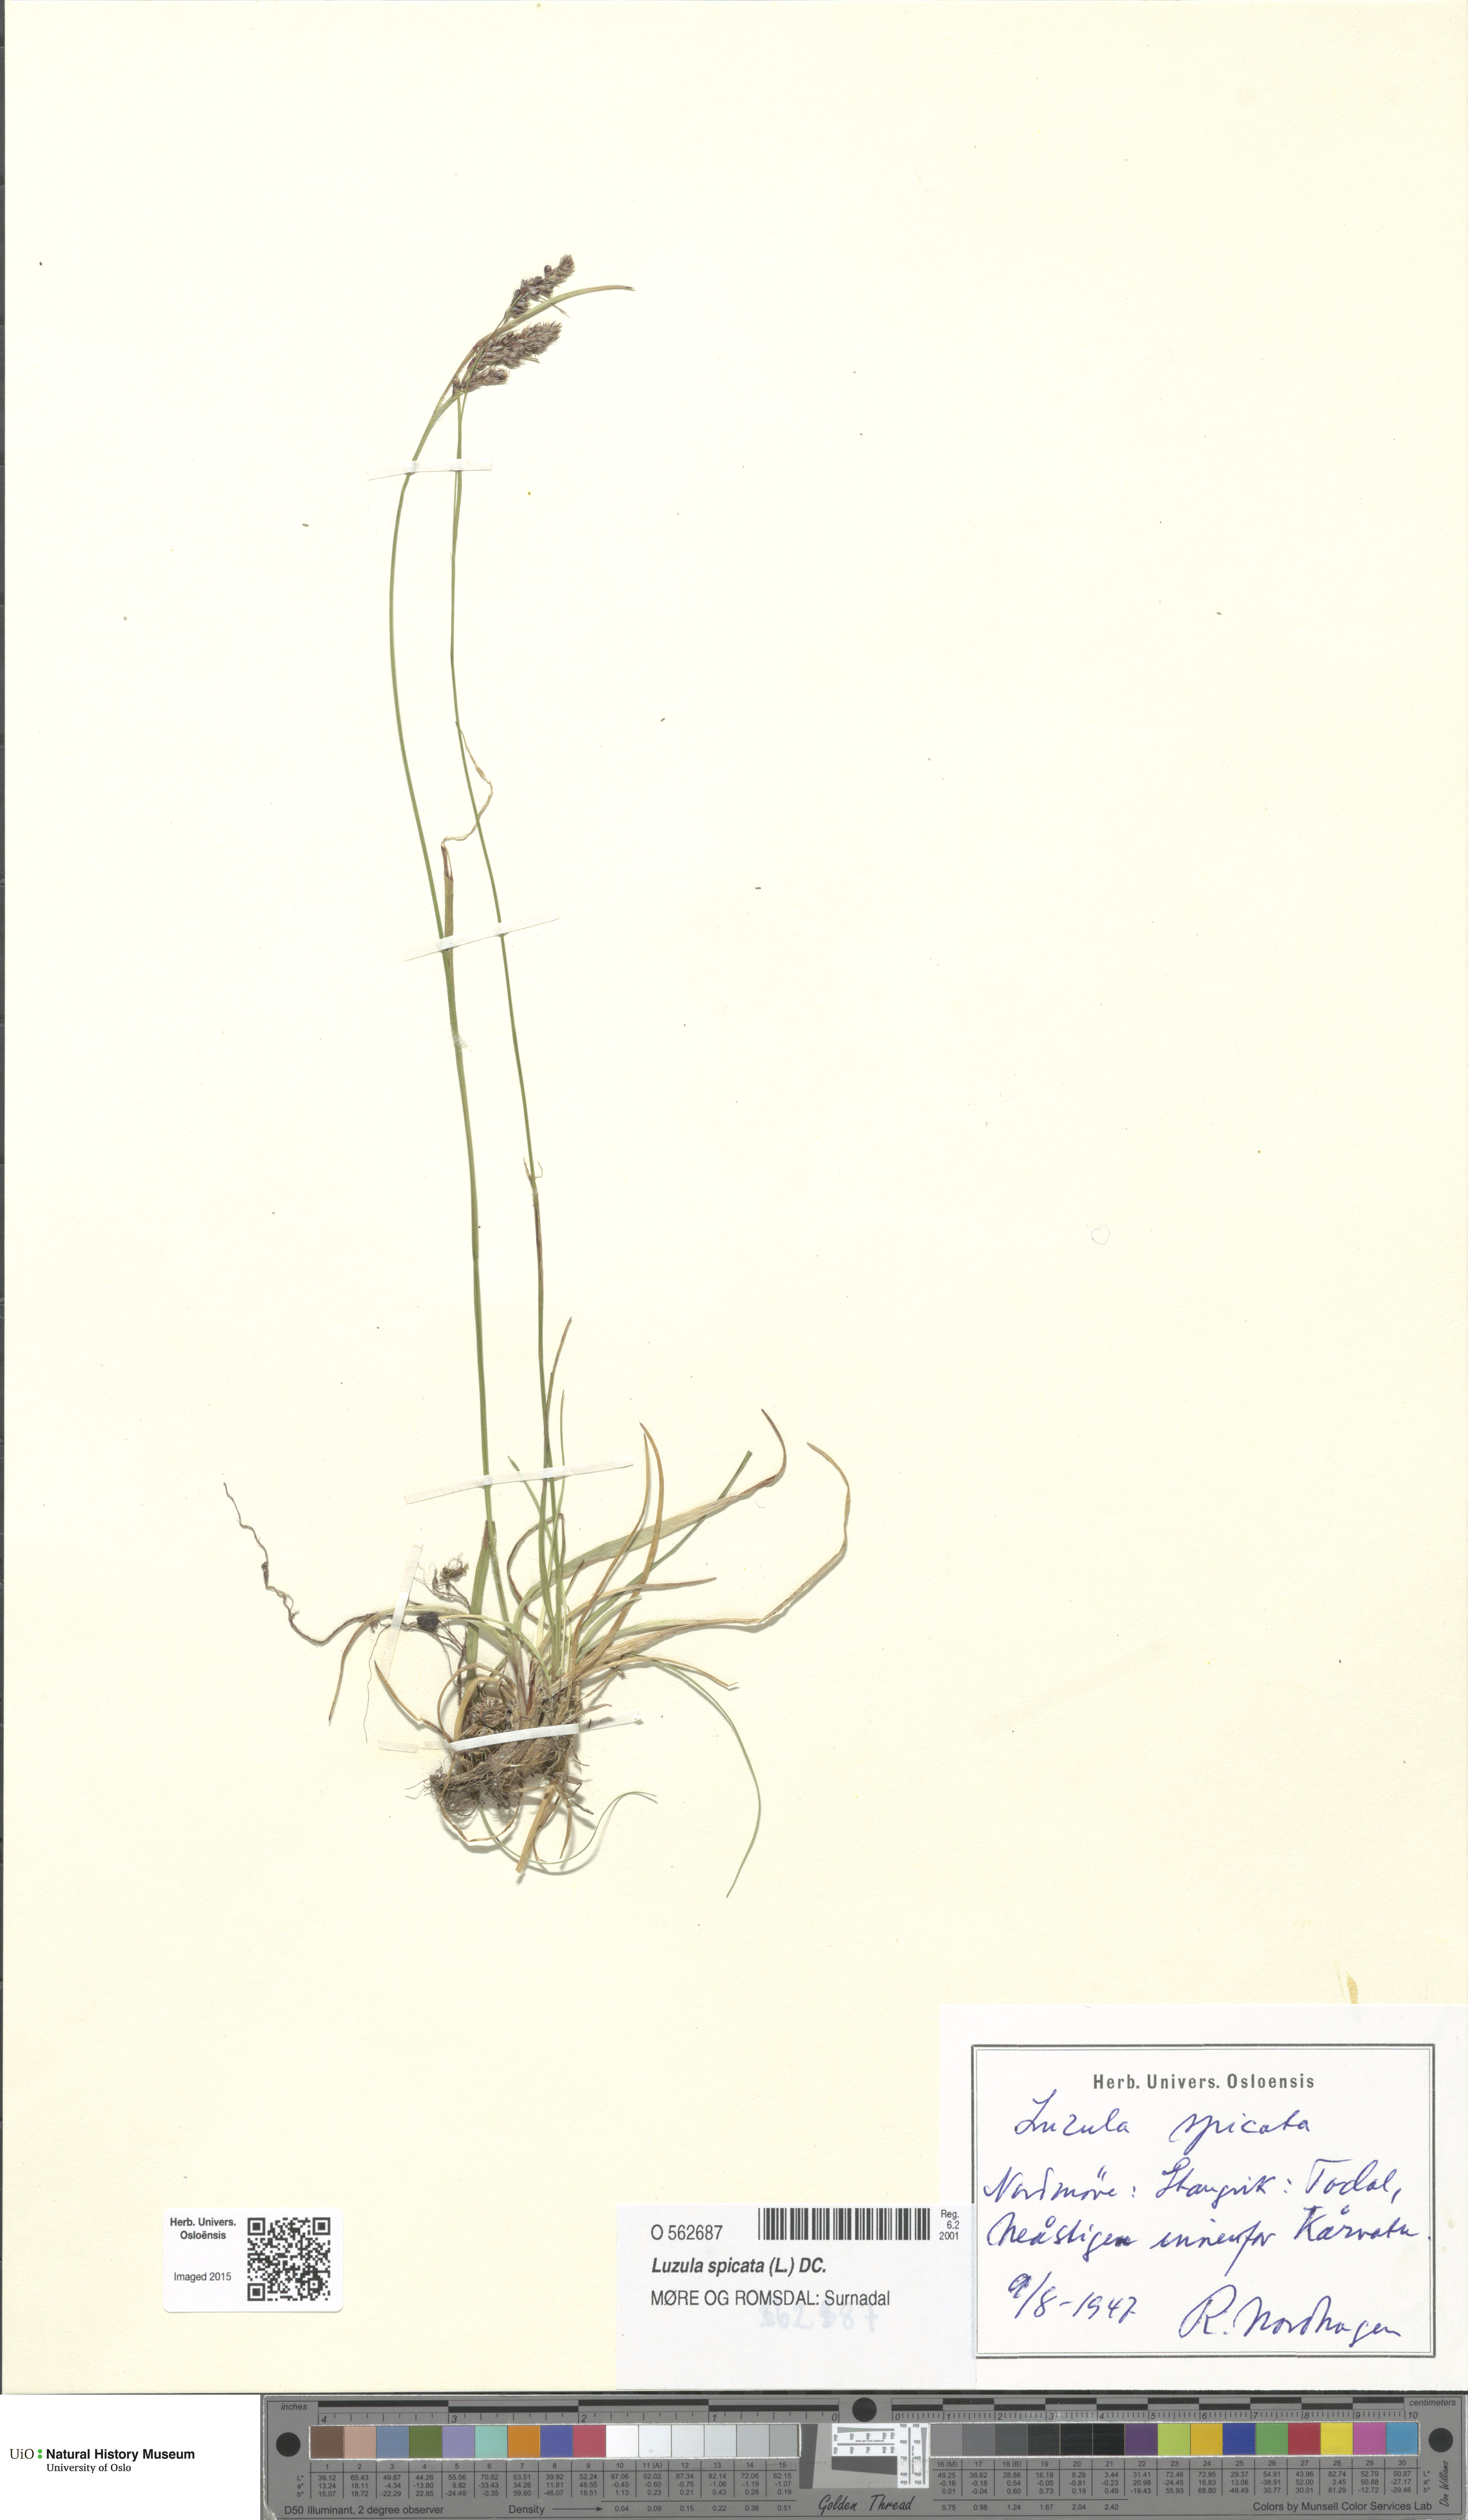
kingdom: Plantae
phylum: Tracheophyta
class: Liliopsida
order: Poales
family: Juncaceae
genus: Luzula
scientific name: Luzula spicata
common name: Spiked wood-rush
